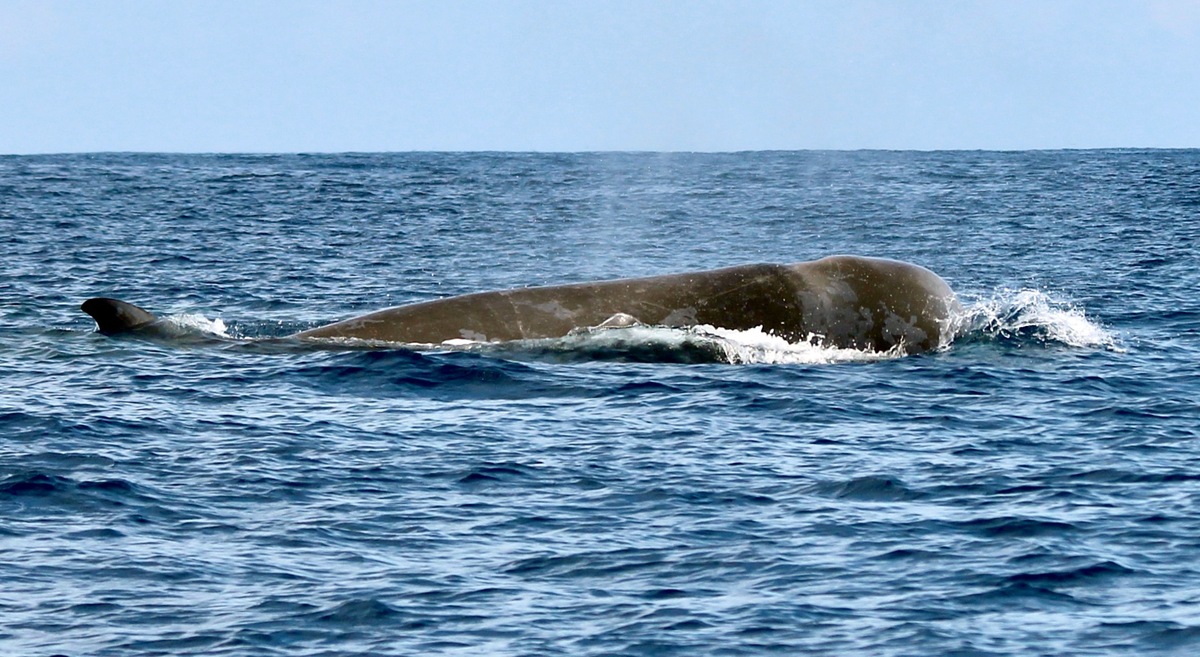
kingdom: Animalia
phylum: Chordata
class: Mammalia
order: Cetacea
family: Hyperoodontidae
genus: Hyperoodon
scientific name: Hyperoodon ampullatus
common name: Northern bottlenose whale
